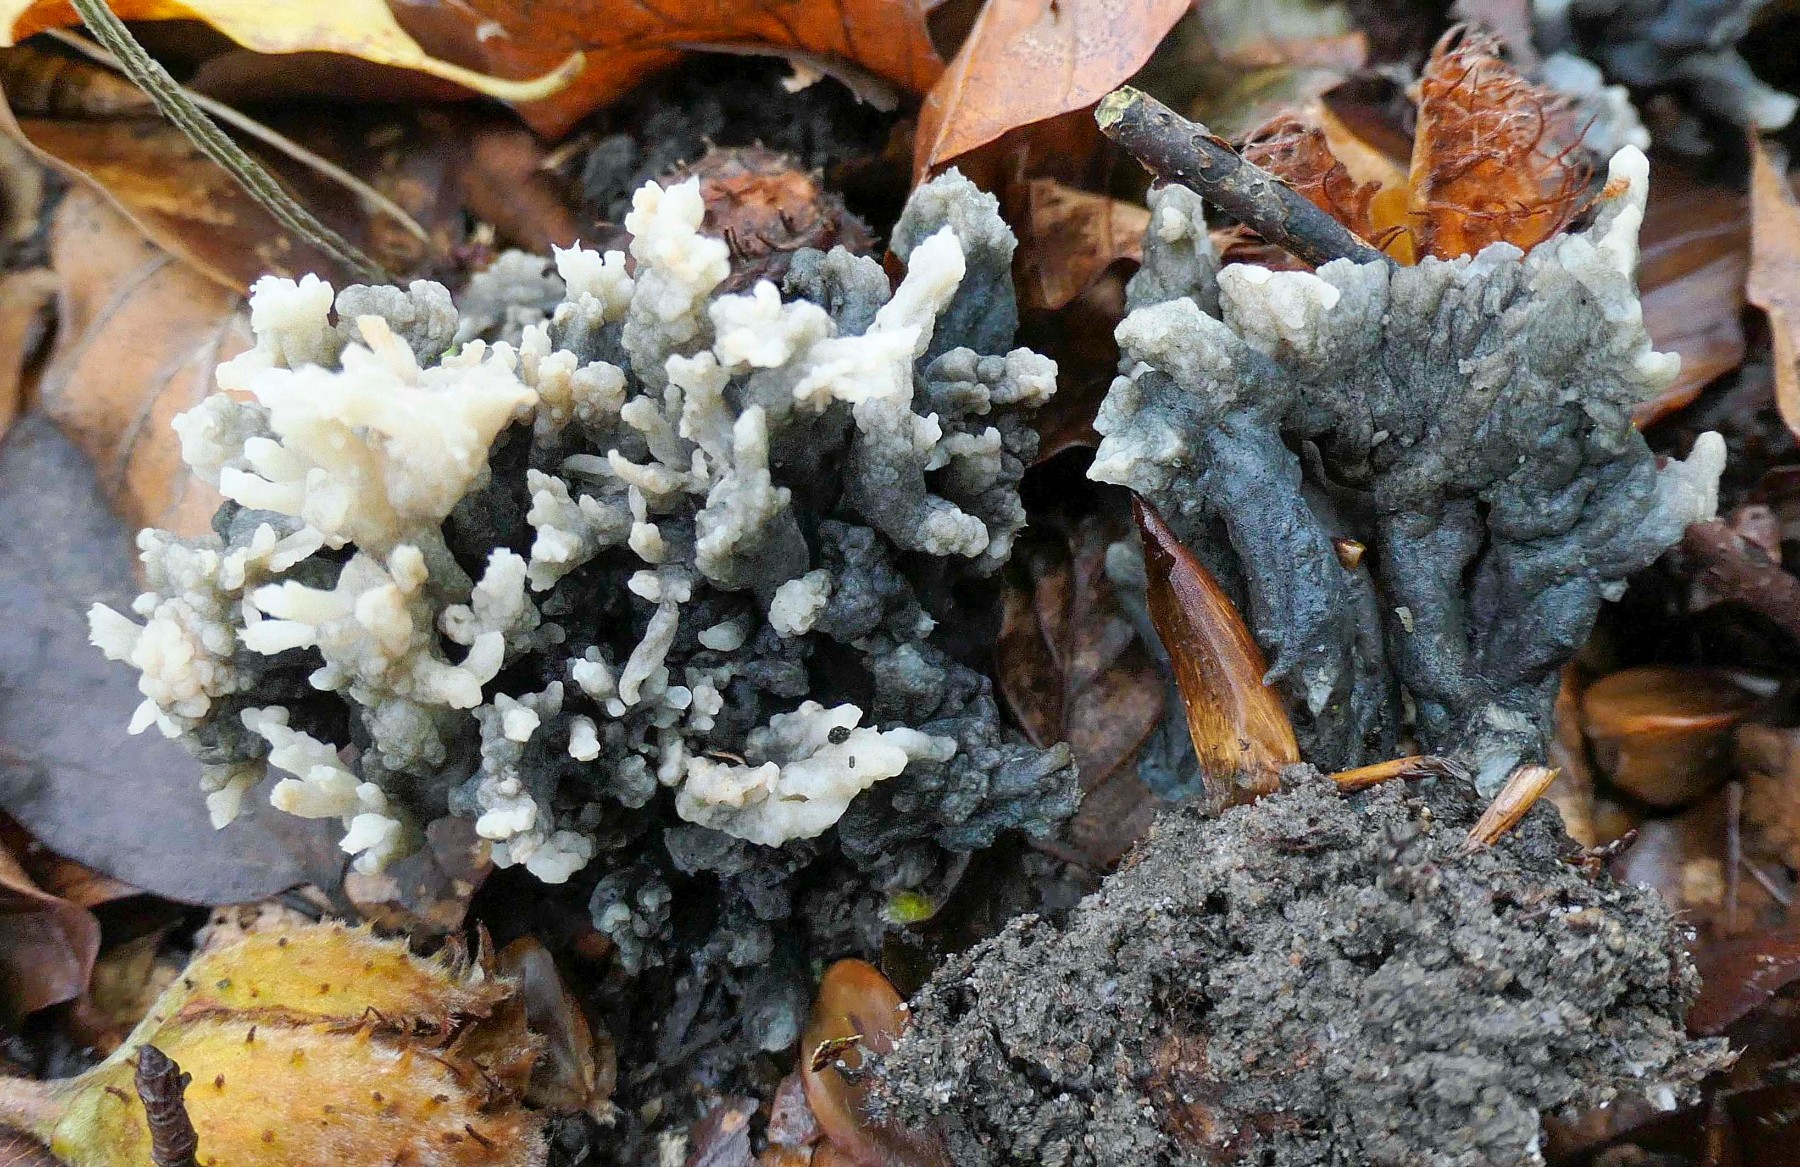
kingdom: Fungi
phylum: Ascomycota
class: Sordariomycetes
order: Sordariales
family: Helminthosphaeriaceae
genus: Helminthosphaeria
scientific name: Helminthosphaeria clavariarum
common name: trold-svampesnyltekerne
